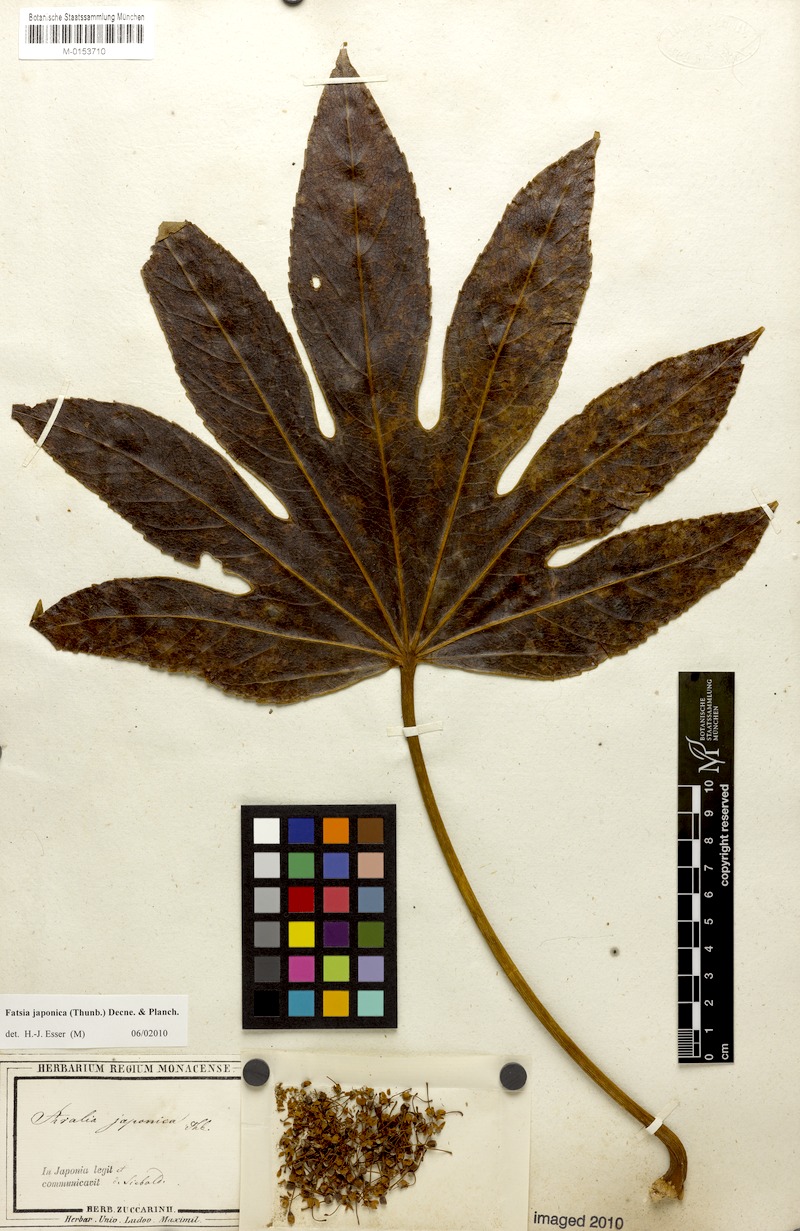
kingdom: Plantae
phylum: Tracheophyta
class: Magnoliopsida
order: Apiales
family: Araliaceae
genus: Fatsia
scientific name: Fatsia japonica
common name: Fatsia
